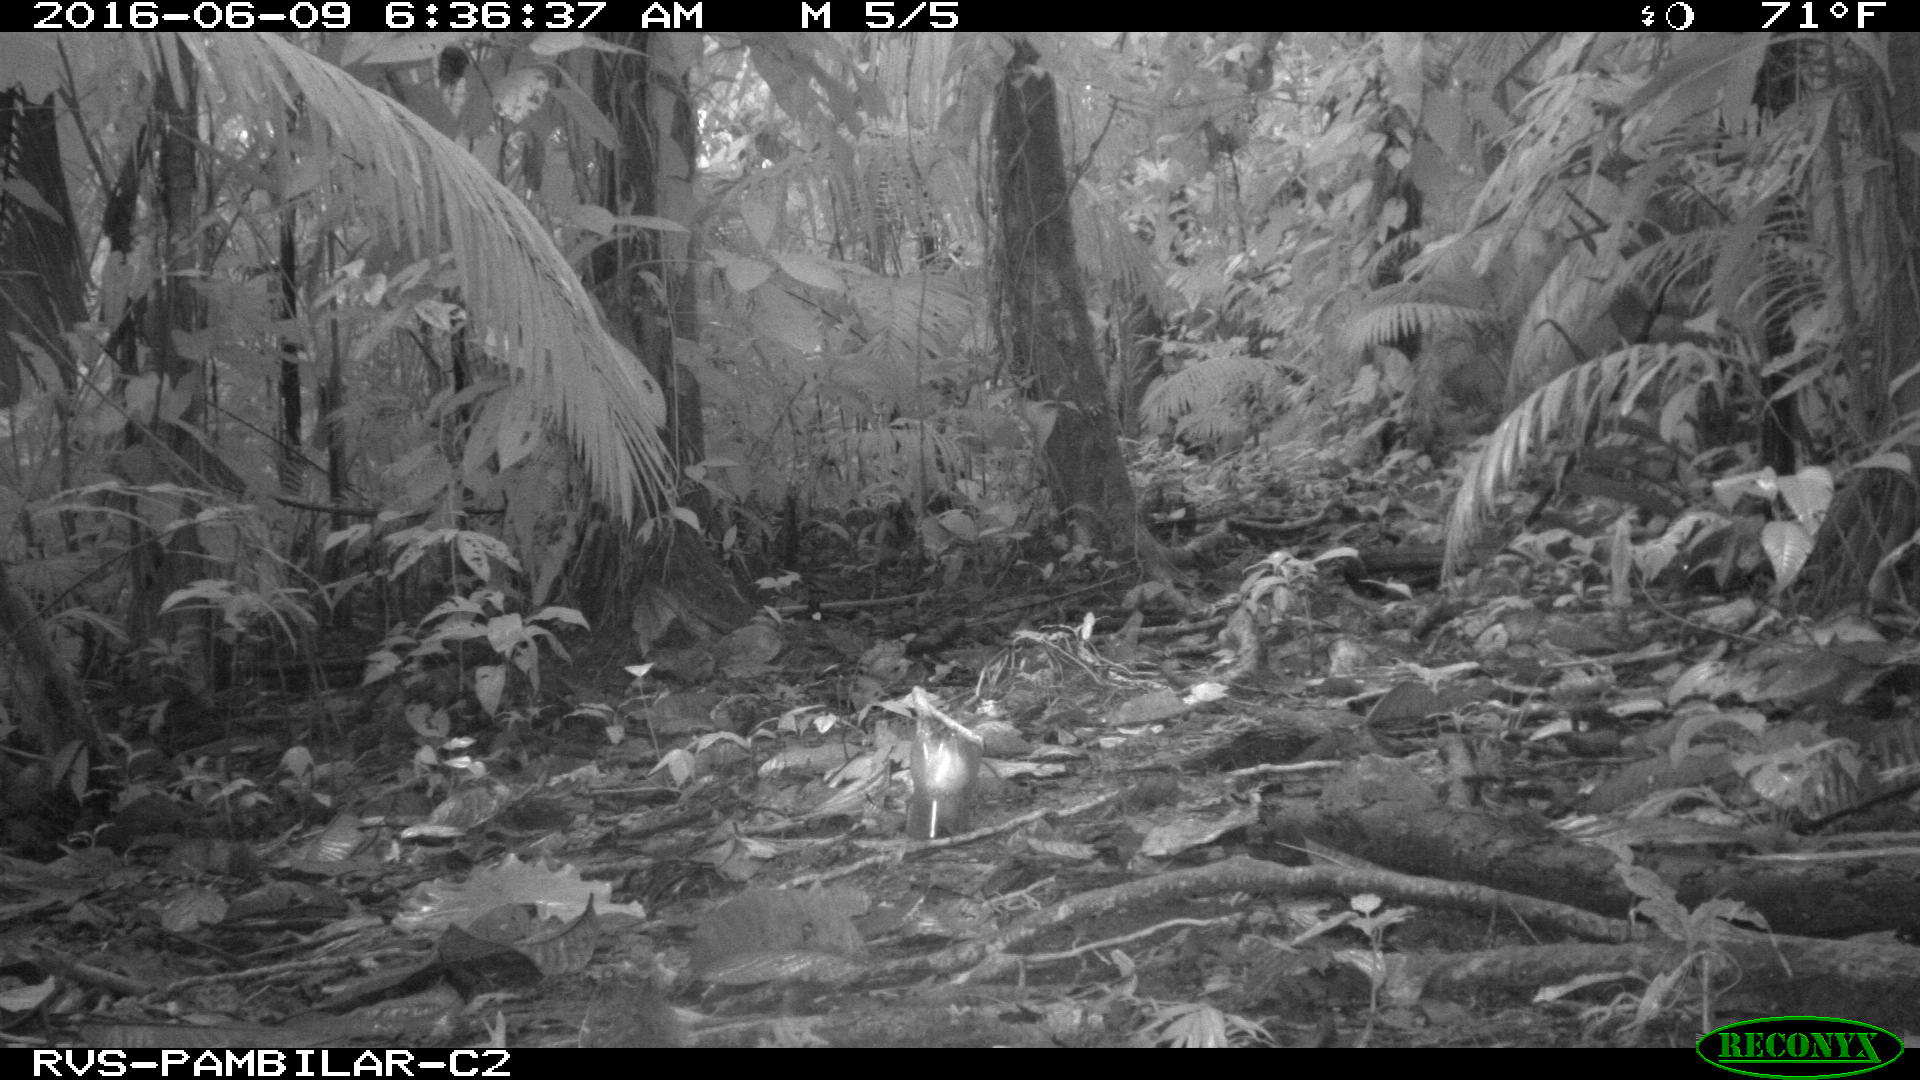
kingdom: Animalia
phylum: Chordata
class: Mammalia
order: Rodentia
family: Dasyproctidae
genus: Dasyprocta
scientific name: Dasyprocta punctata
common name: Central american agouti
